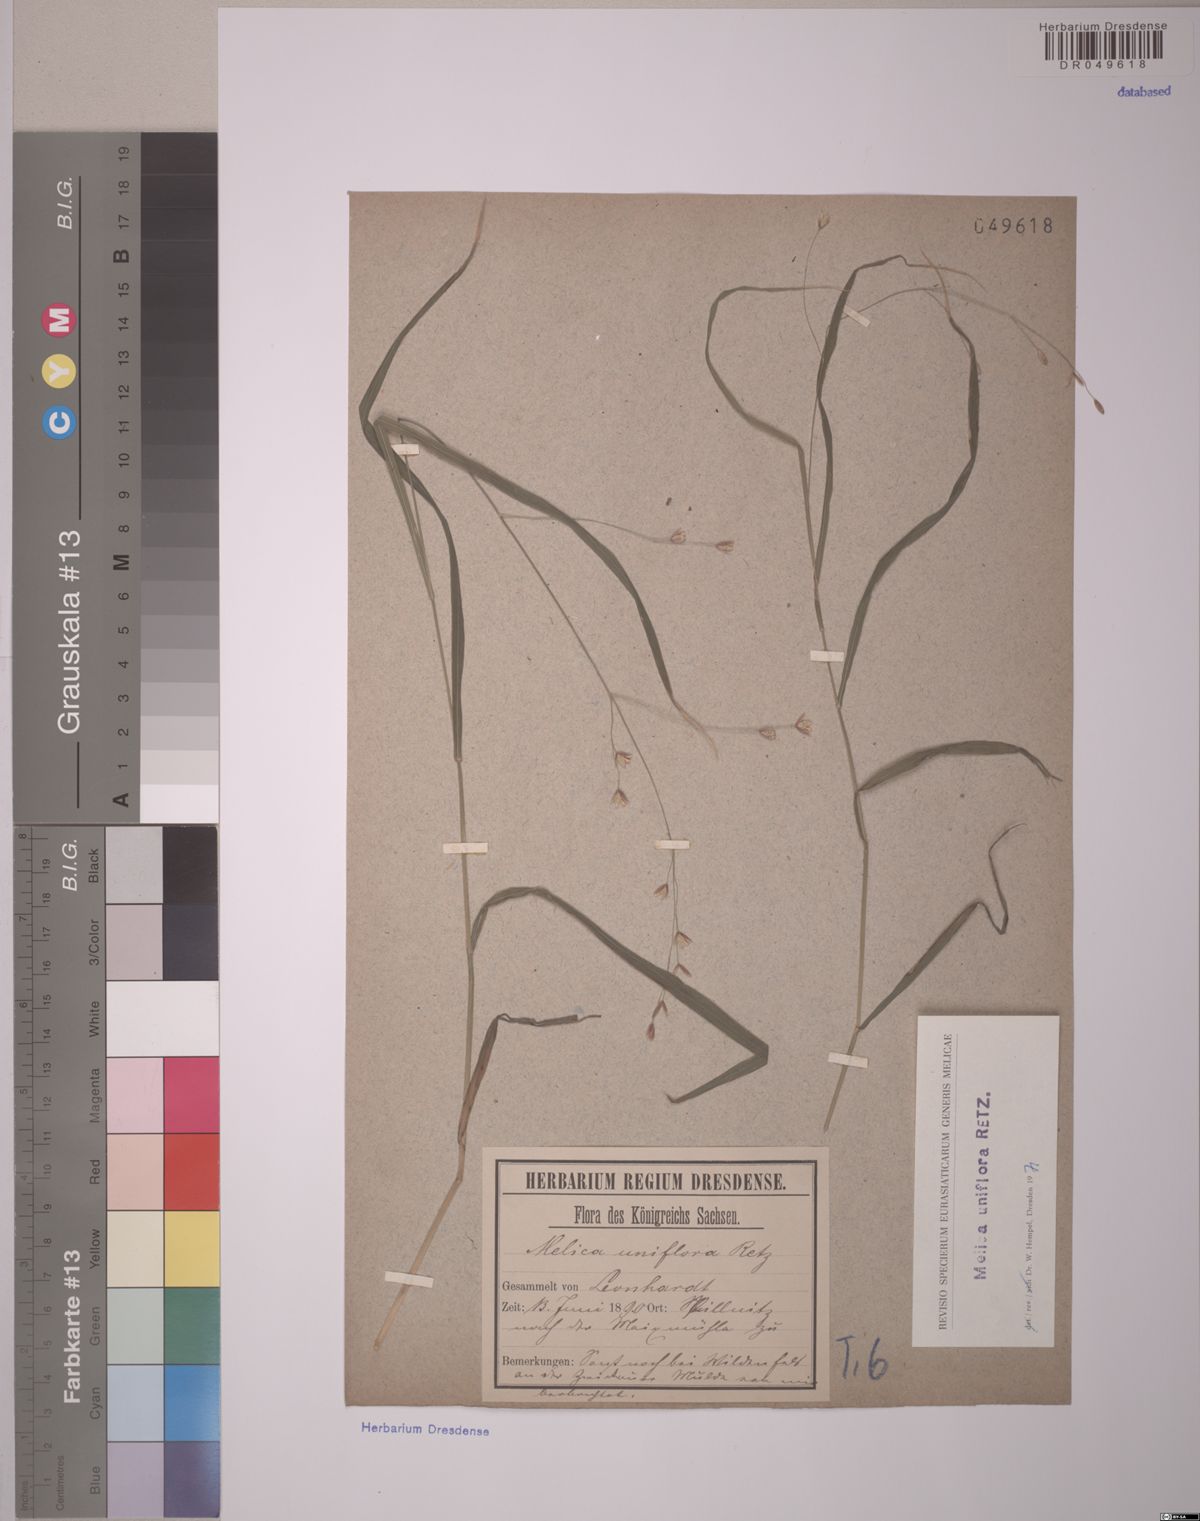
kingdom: Plantae
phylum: Tracheophyta
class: Liliopsida
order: Poales
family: Poaceae
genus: Melica
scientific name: Melica uniflora
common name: Wood melick
